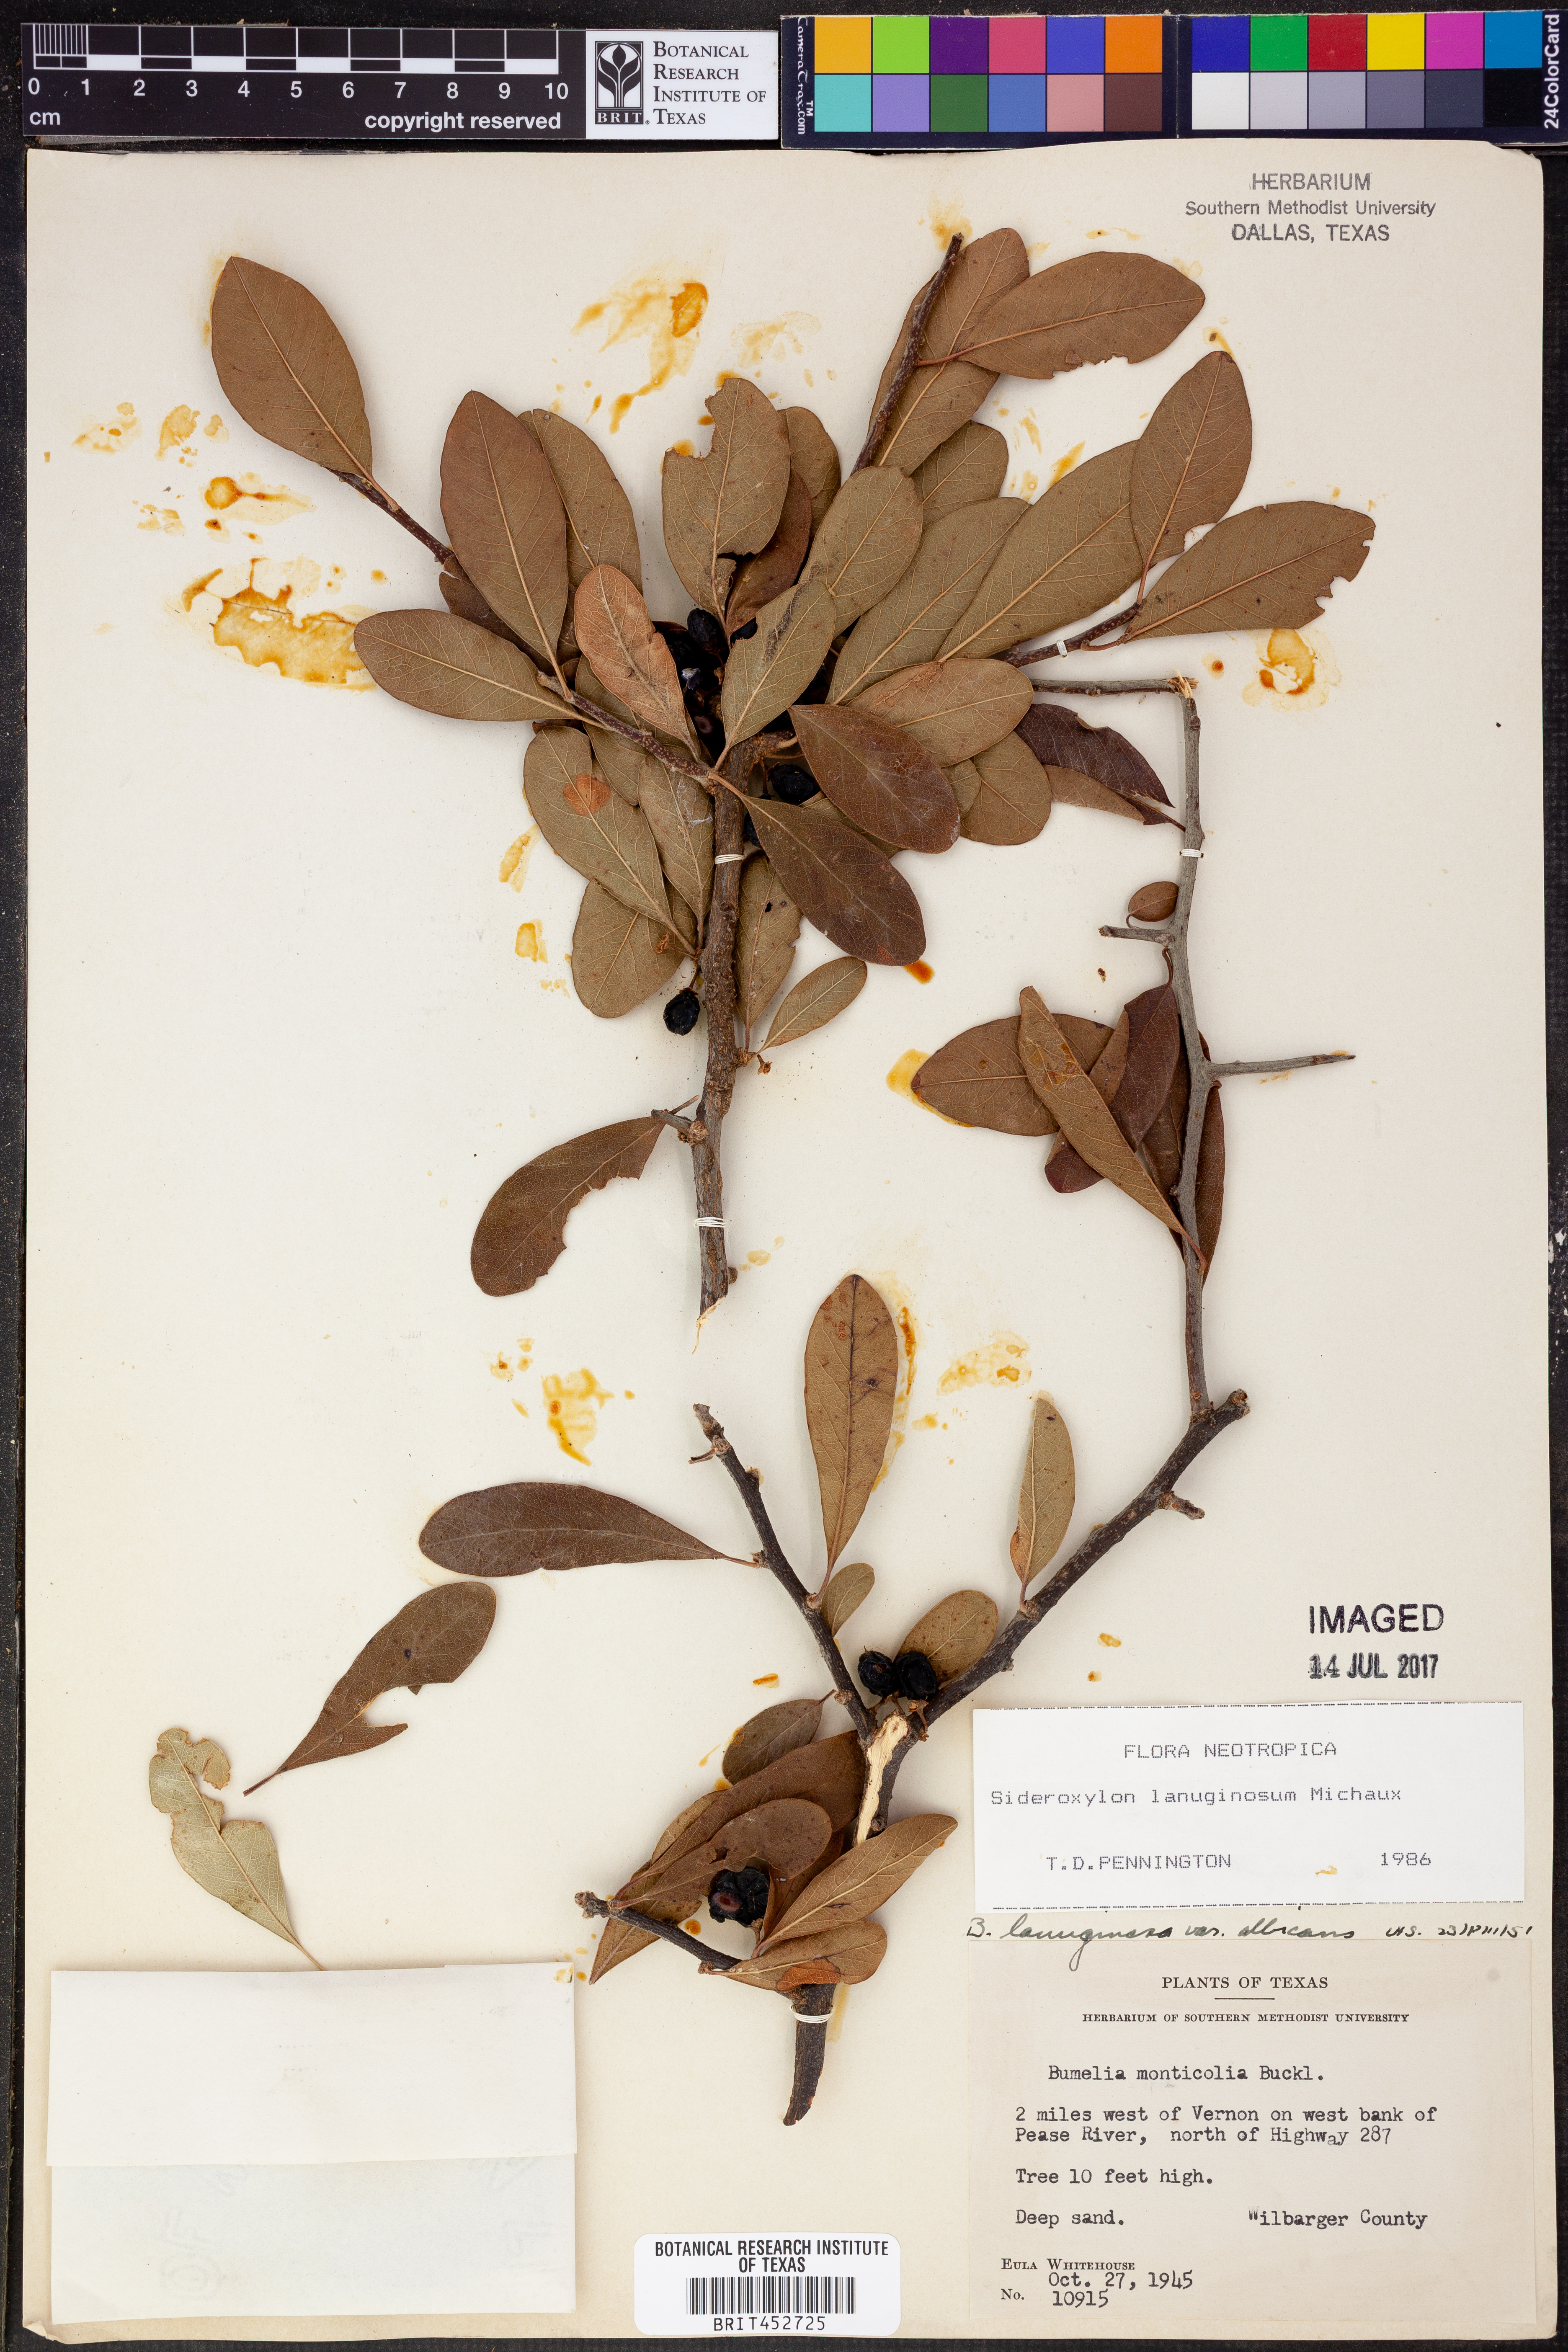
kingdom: Plantae
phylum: Tracheophyta
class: Magnoliopsida
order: Ericales
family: Sapotaceae
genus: Sideroxylon
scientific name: Sideroxylon lanuginosum
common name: Chittamwood
